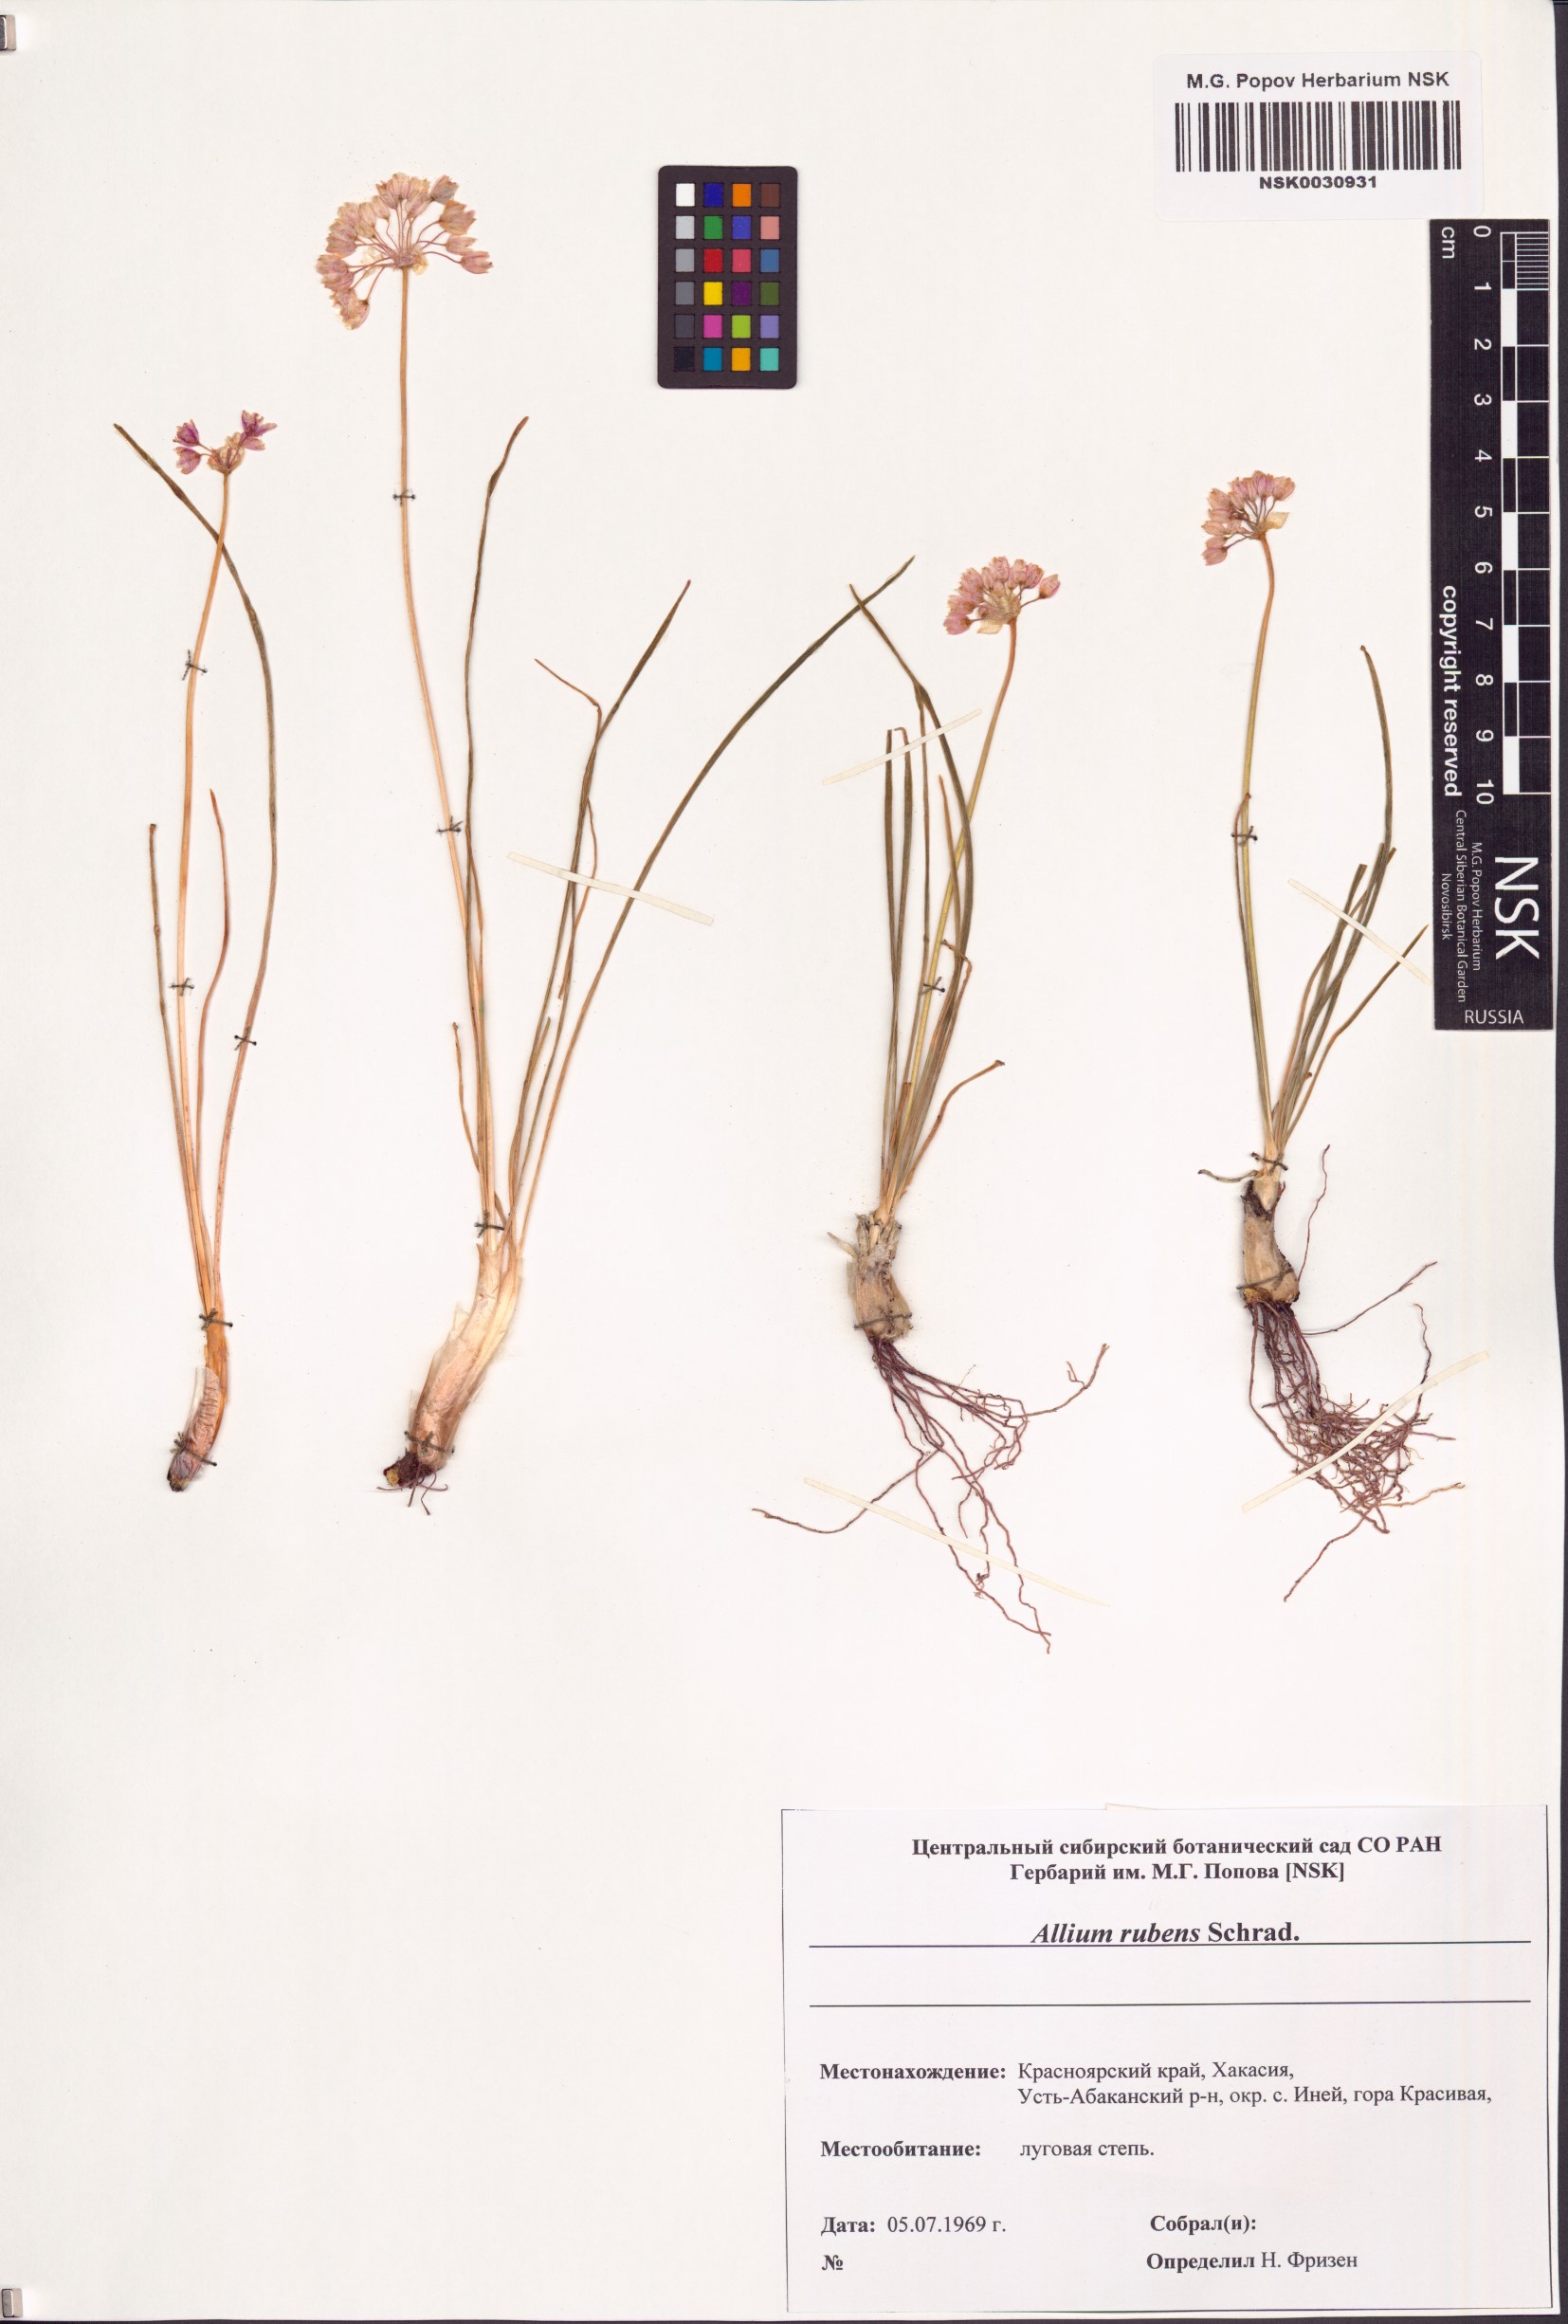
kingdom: Plantae
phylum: Tracheophyta
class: Liliopsida
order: Asparagales
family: Amaryllidaceae
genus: Allium
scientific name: Allium rubens
